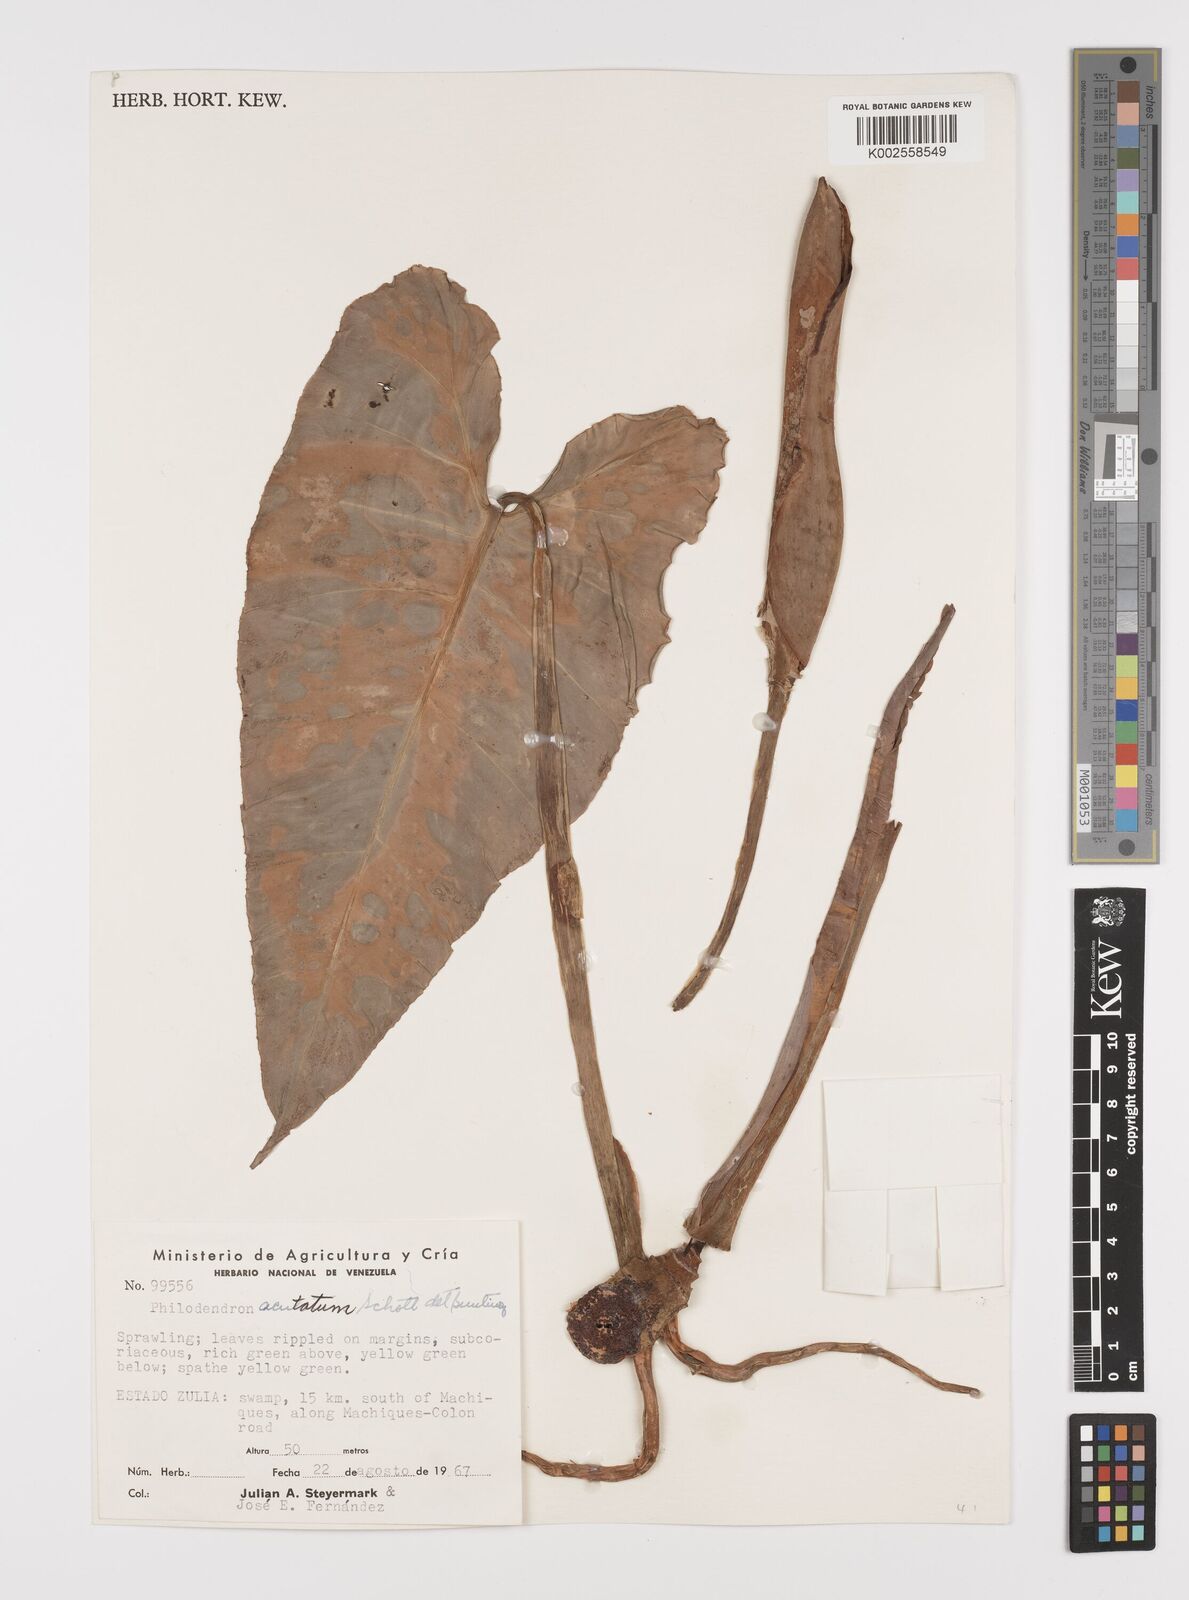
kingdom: Plantae
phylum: Tracheophyta
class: Liliopsida
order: Alismatales
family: Araceae
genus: Philodendron
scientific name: Philodendron quinquenervium
